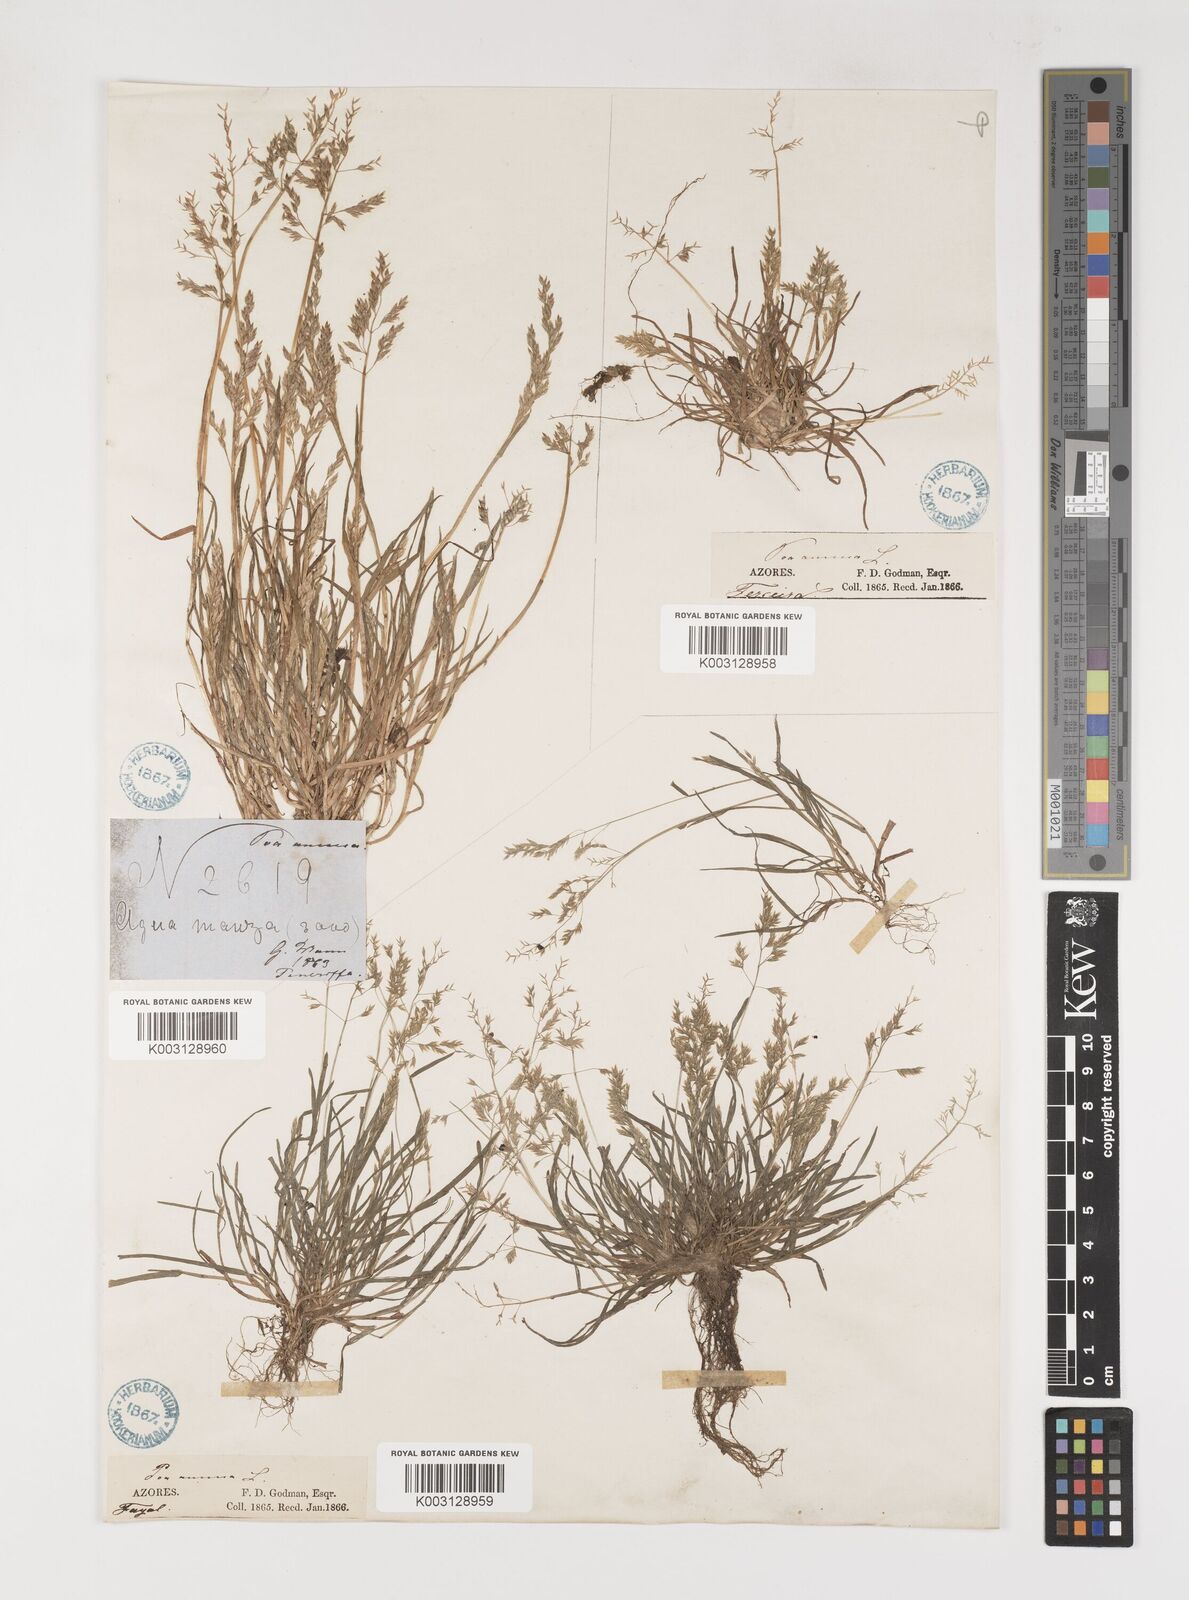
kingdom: Plantae
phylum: Tracheophyta
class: Liliopsida
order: Poales
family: Poaceae
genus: Poa
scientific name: Poa annua
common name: Annual bluegrass
